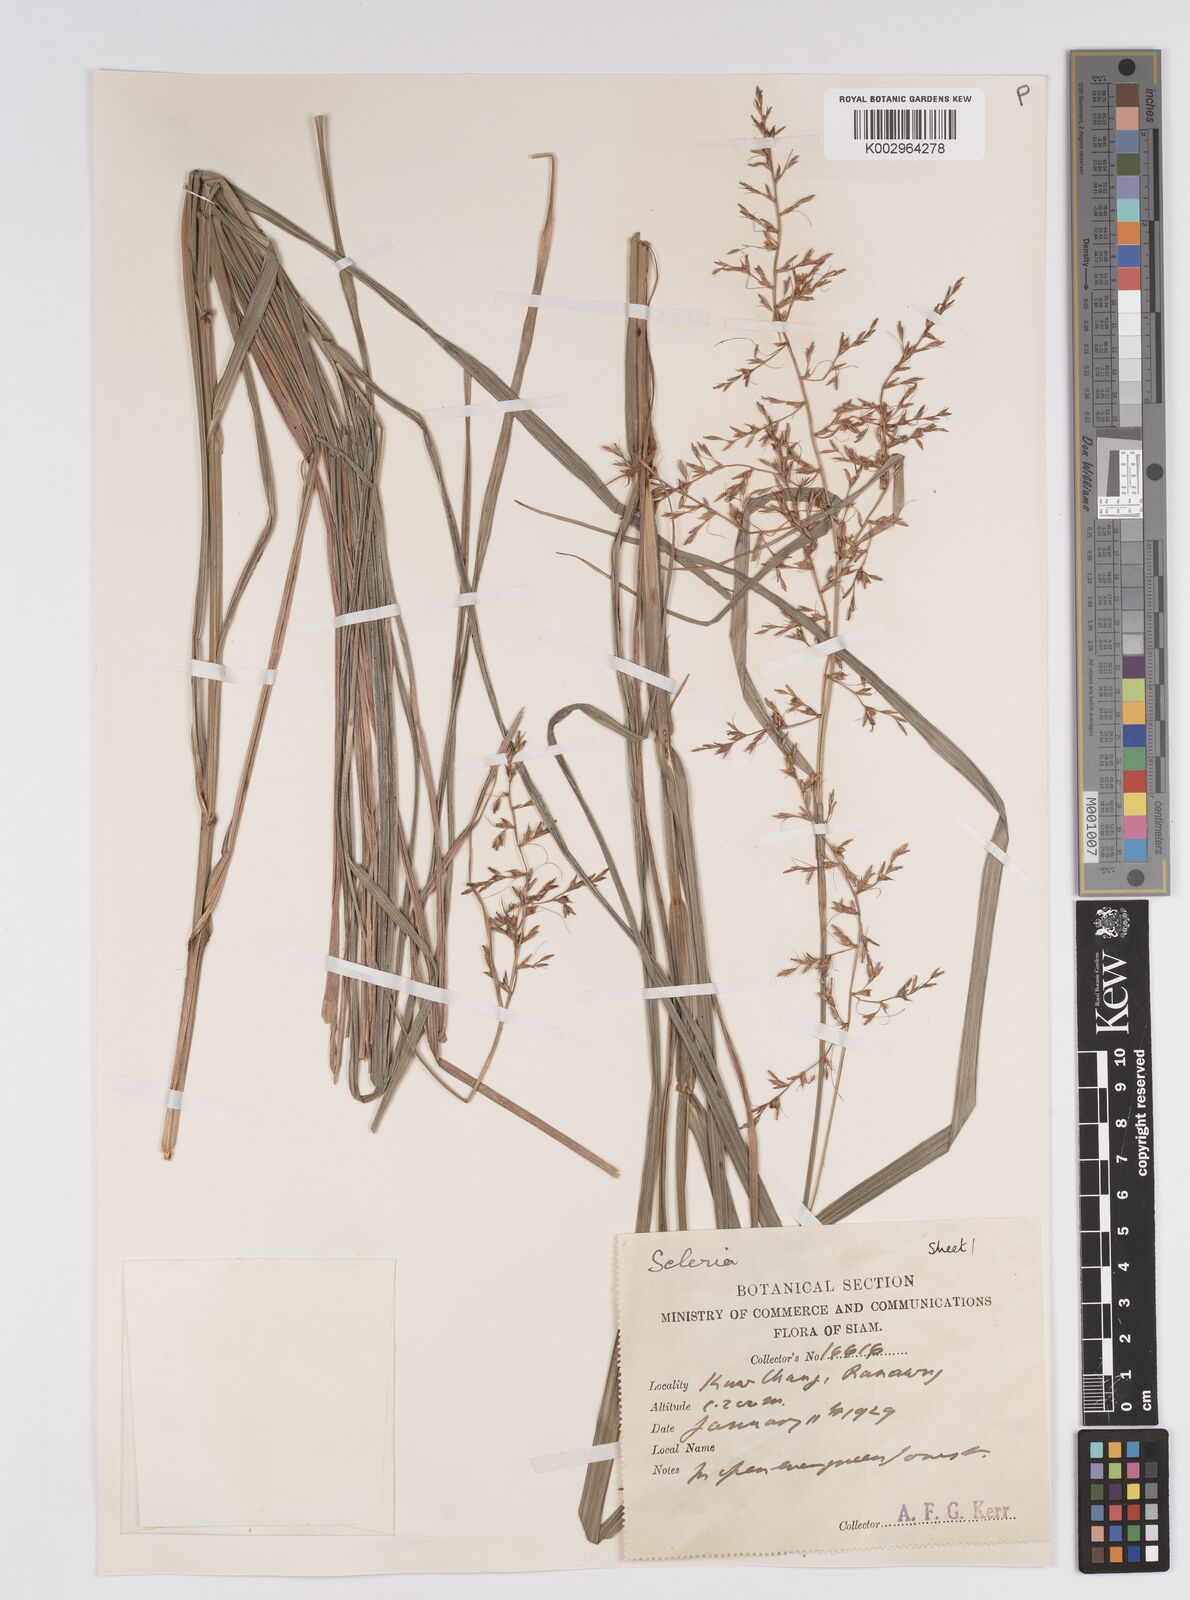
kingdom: Plantae
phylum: Tracheophyta
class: Liliopsida
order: Poales
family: Cyperaceae
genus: Scleria
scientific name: Scleria
